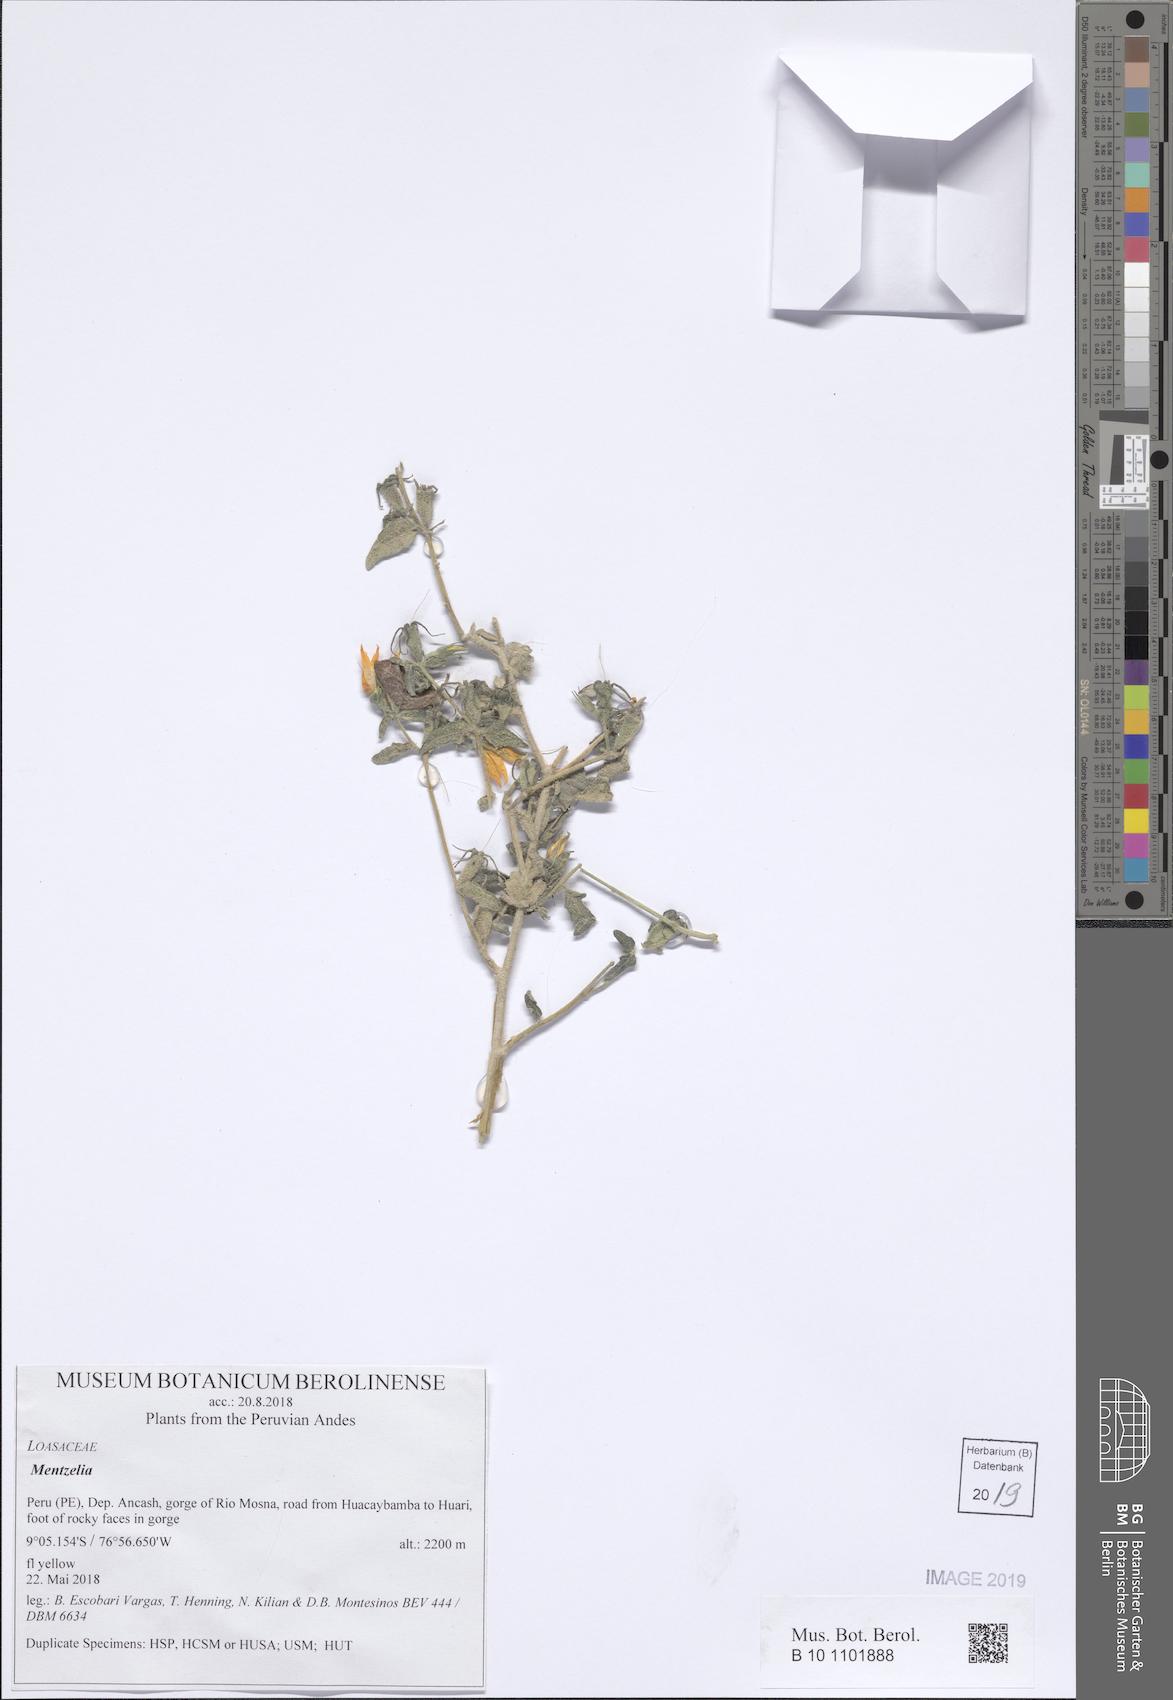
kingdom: Plantae
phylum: Tracheophyta
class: Magnoliopsida
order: Cornales
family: Loasaceae
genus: Mentzelia
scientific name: Mentzelia
